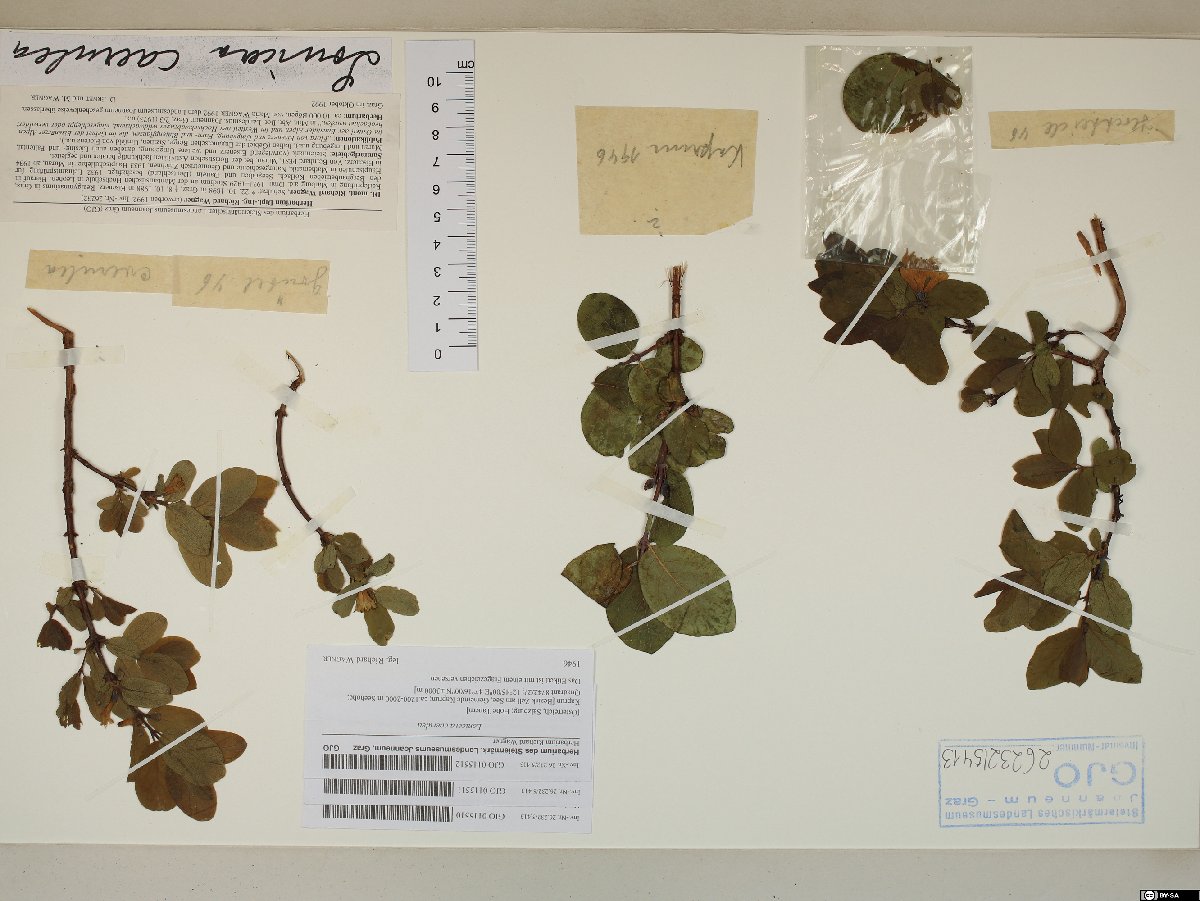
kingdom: Plantae
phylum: Tracheophyta
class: Magnoliopsida
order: Dipsacales
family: Caprifoliaceae
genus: Lonicera
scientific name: Lonicera caerulea
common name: Blue honeysuckle
